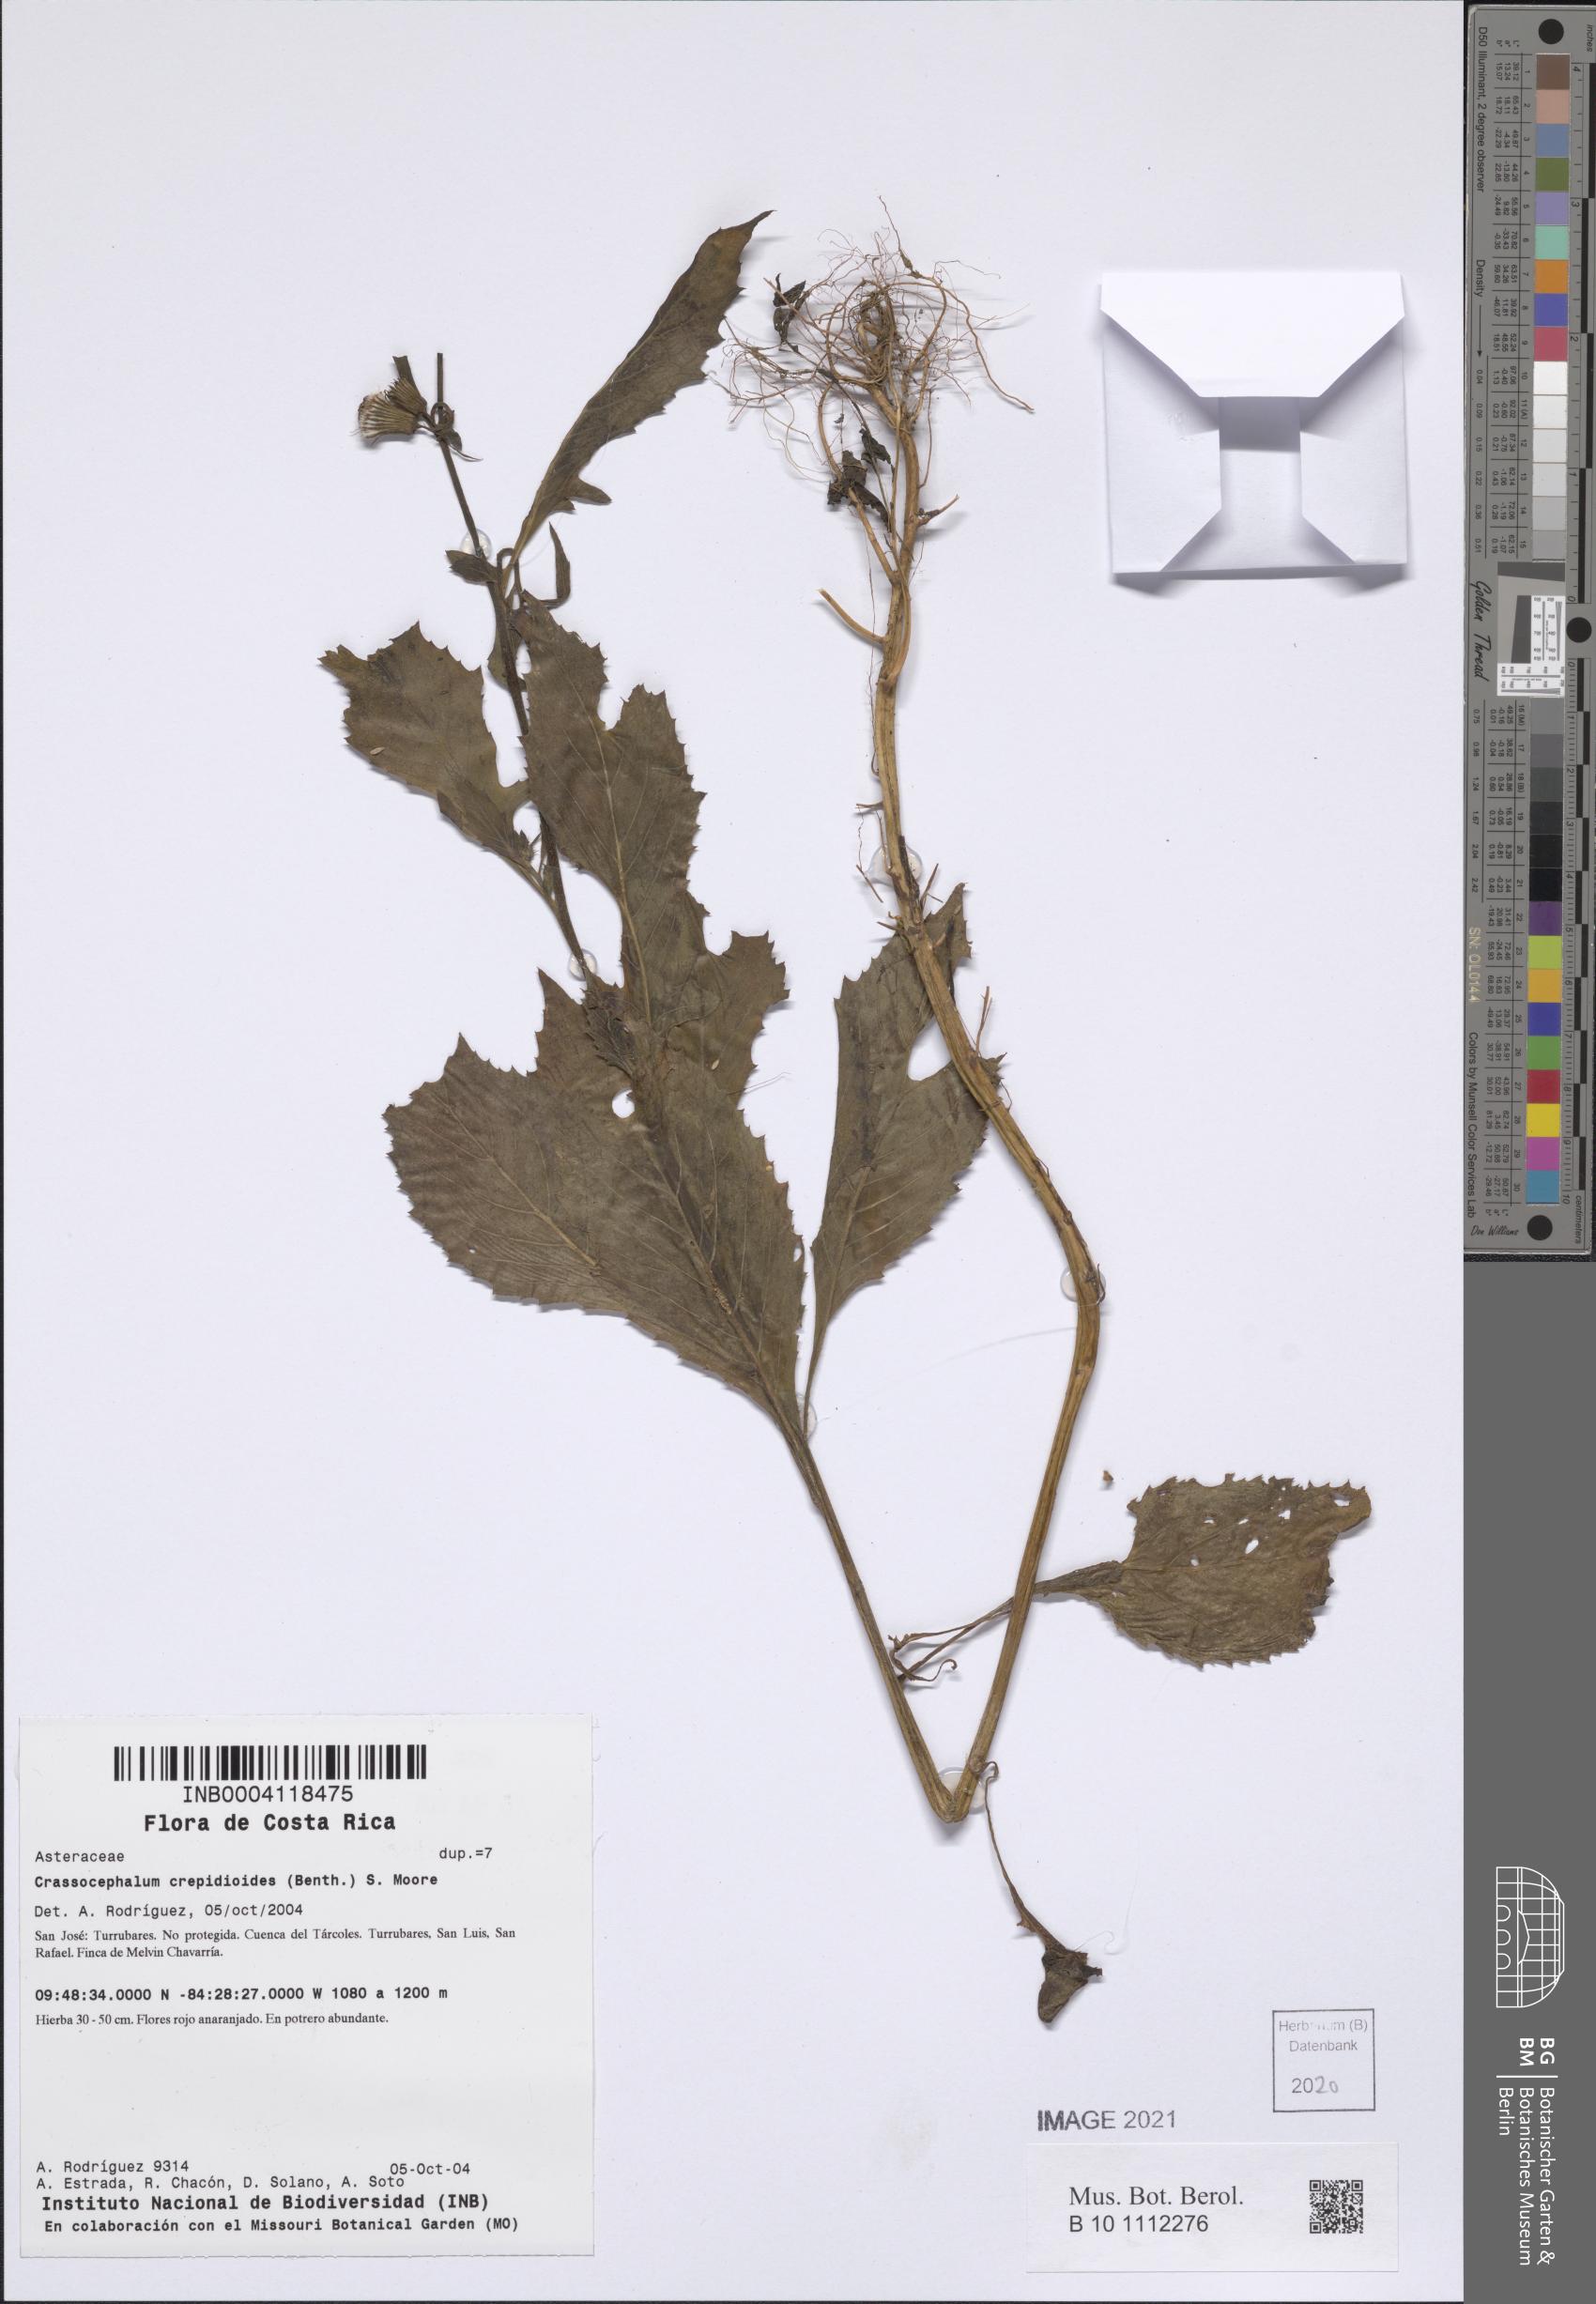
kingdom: Plantae
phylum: Tracheophyta
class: Magnoliopsida
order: Asterales
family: Asteraceae
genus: Crassocephalum
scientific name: Crassocephalum crepidioides
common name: Redflower ragleaf
